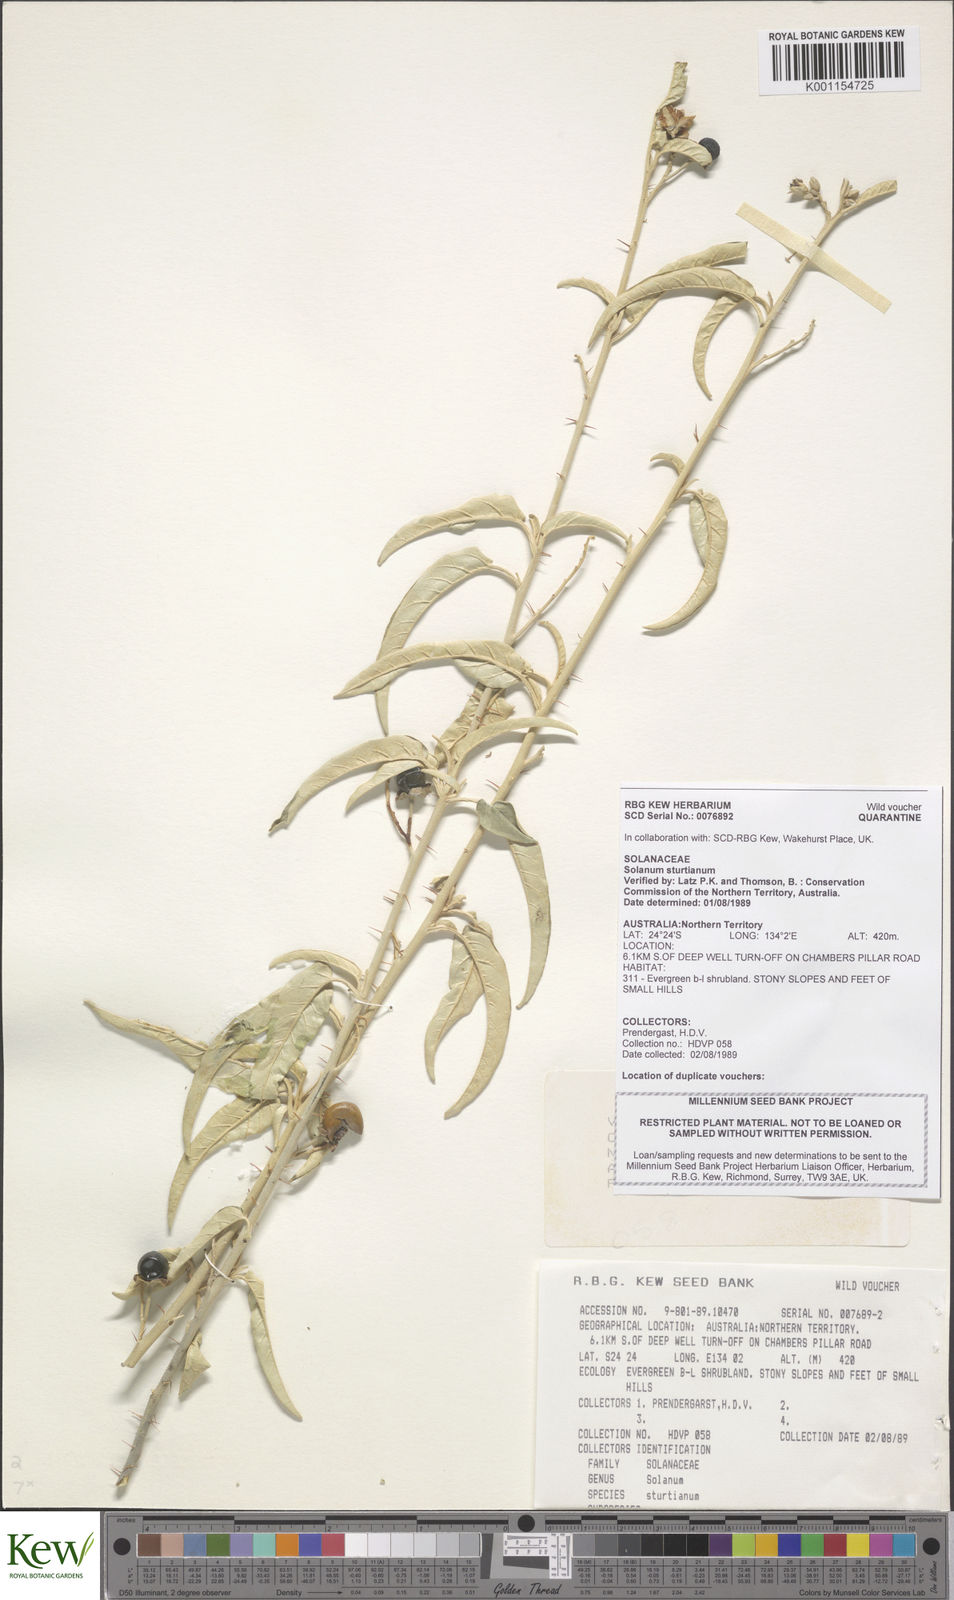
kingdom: Plantae
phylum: Tracheophyta
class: Magnoliopsida
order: Solanales
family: Solanaceae
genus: Solanum
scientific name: Solanum sturtianum
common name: Thargomindah nightshade
